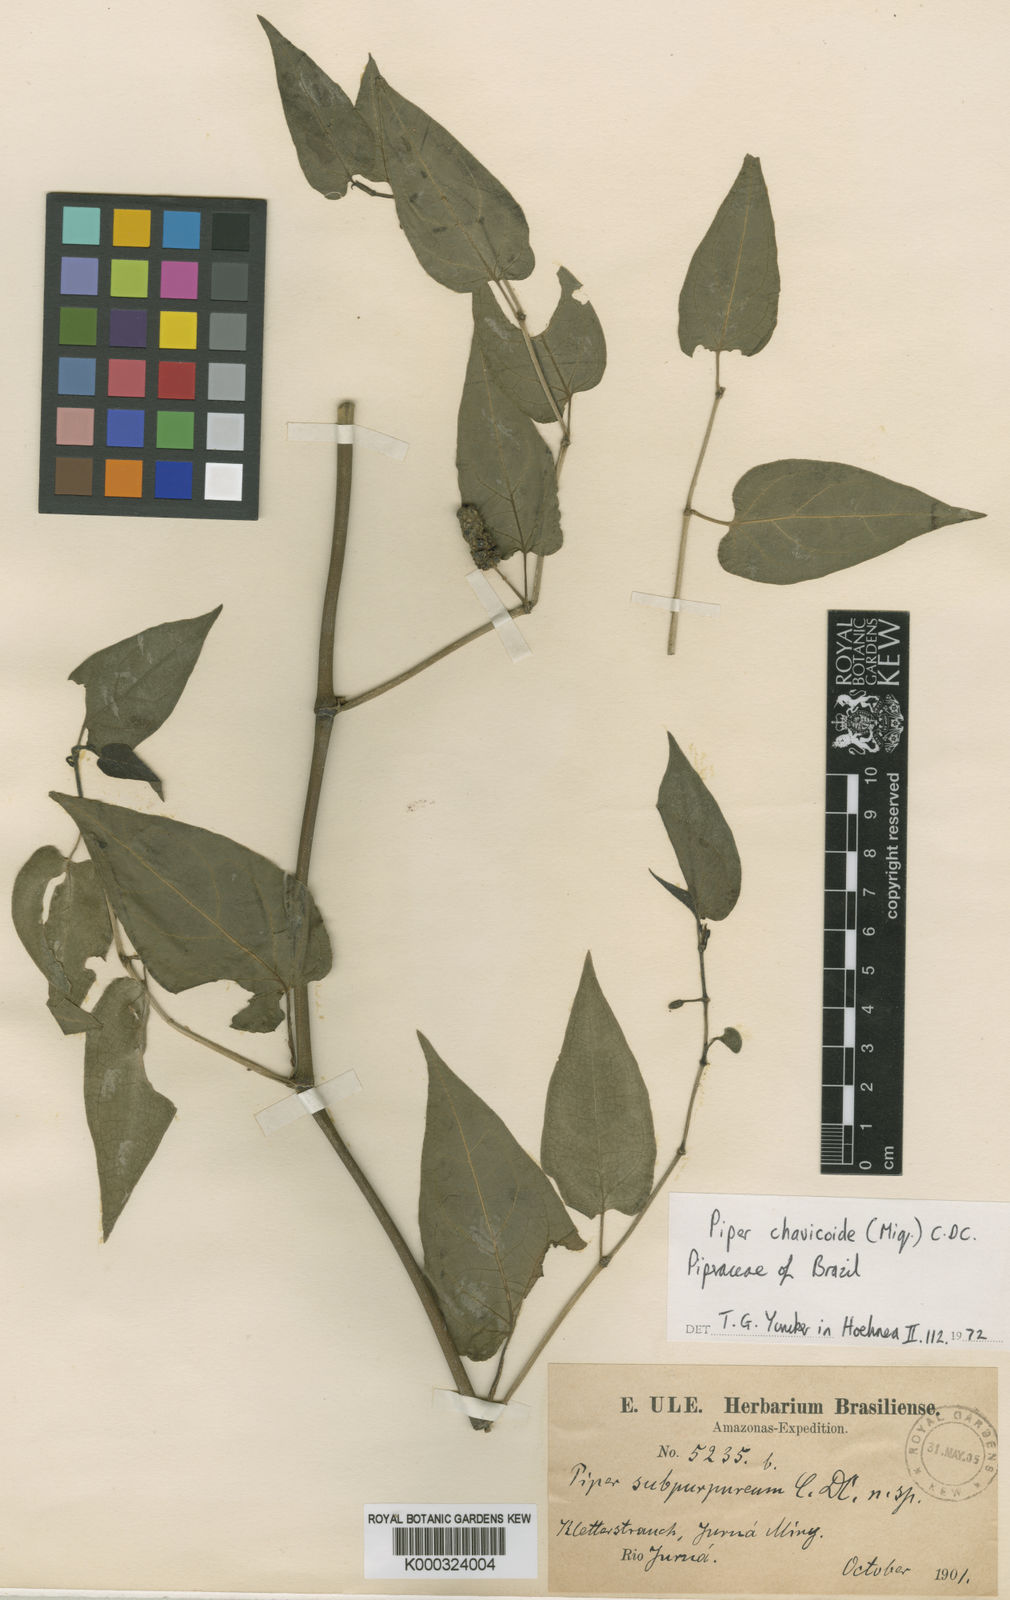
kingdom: Plantae
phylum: Tracheophyta
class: Magnoliopsida
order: Piperales
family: Piperaceae
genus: Piper
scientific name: Piper chavicoides
